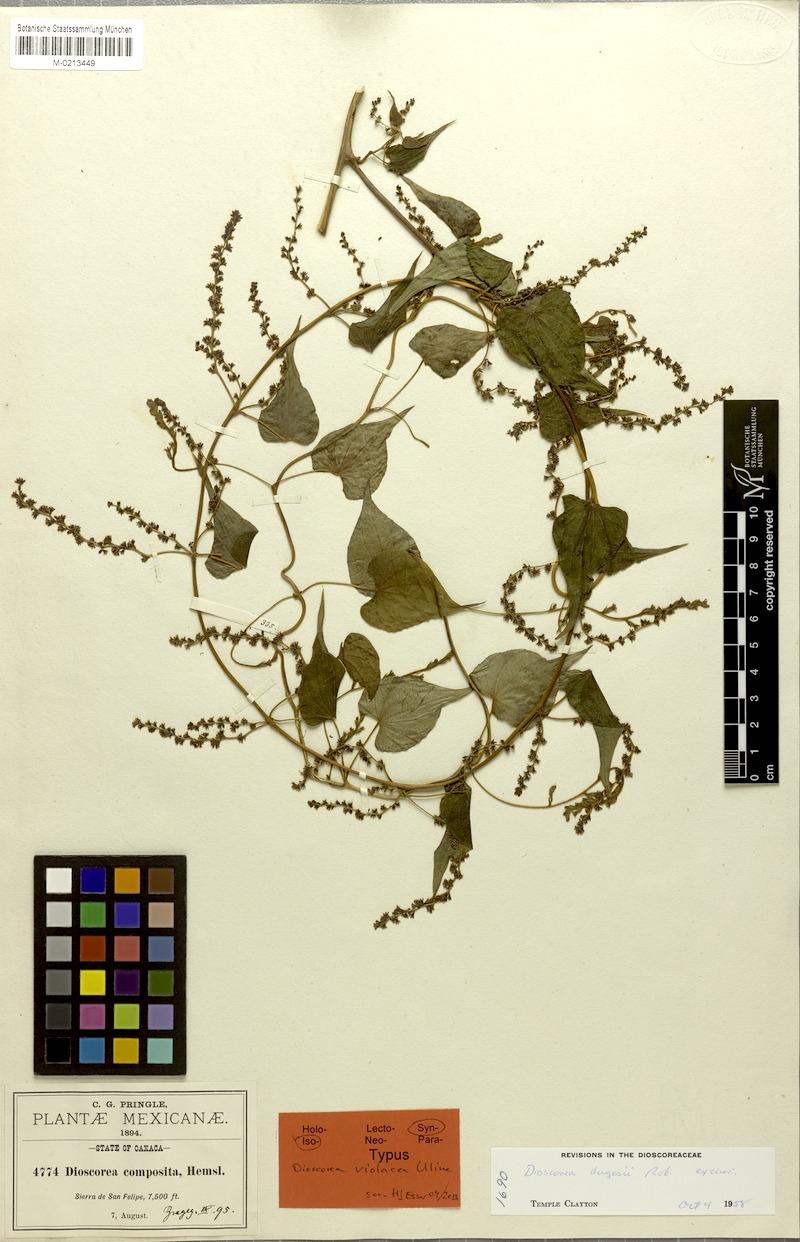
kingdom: Plantae
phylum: Tracheophyta
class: Liliopsida
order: Dioscoreales
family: Dioscoreaceae
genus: Dioscorea
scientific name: Dioscorea dugesii
